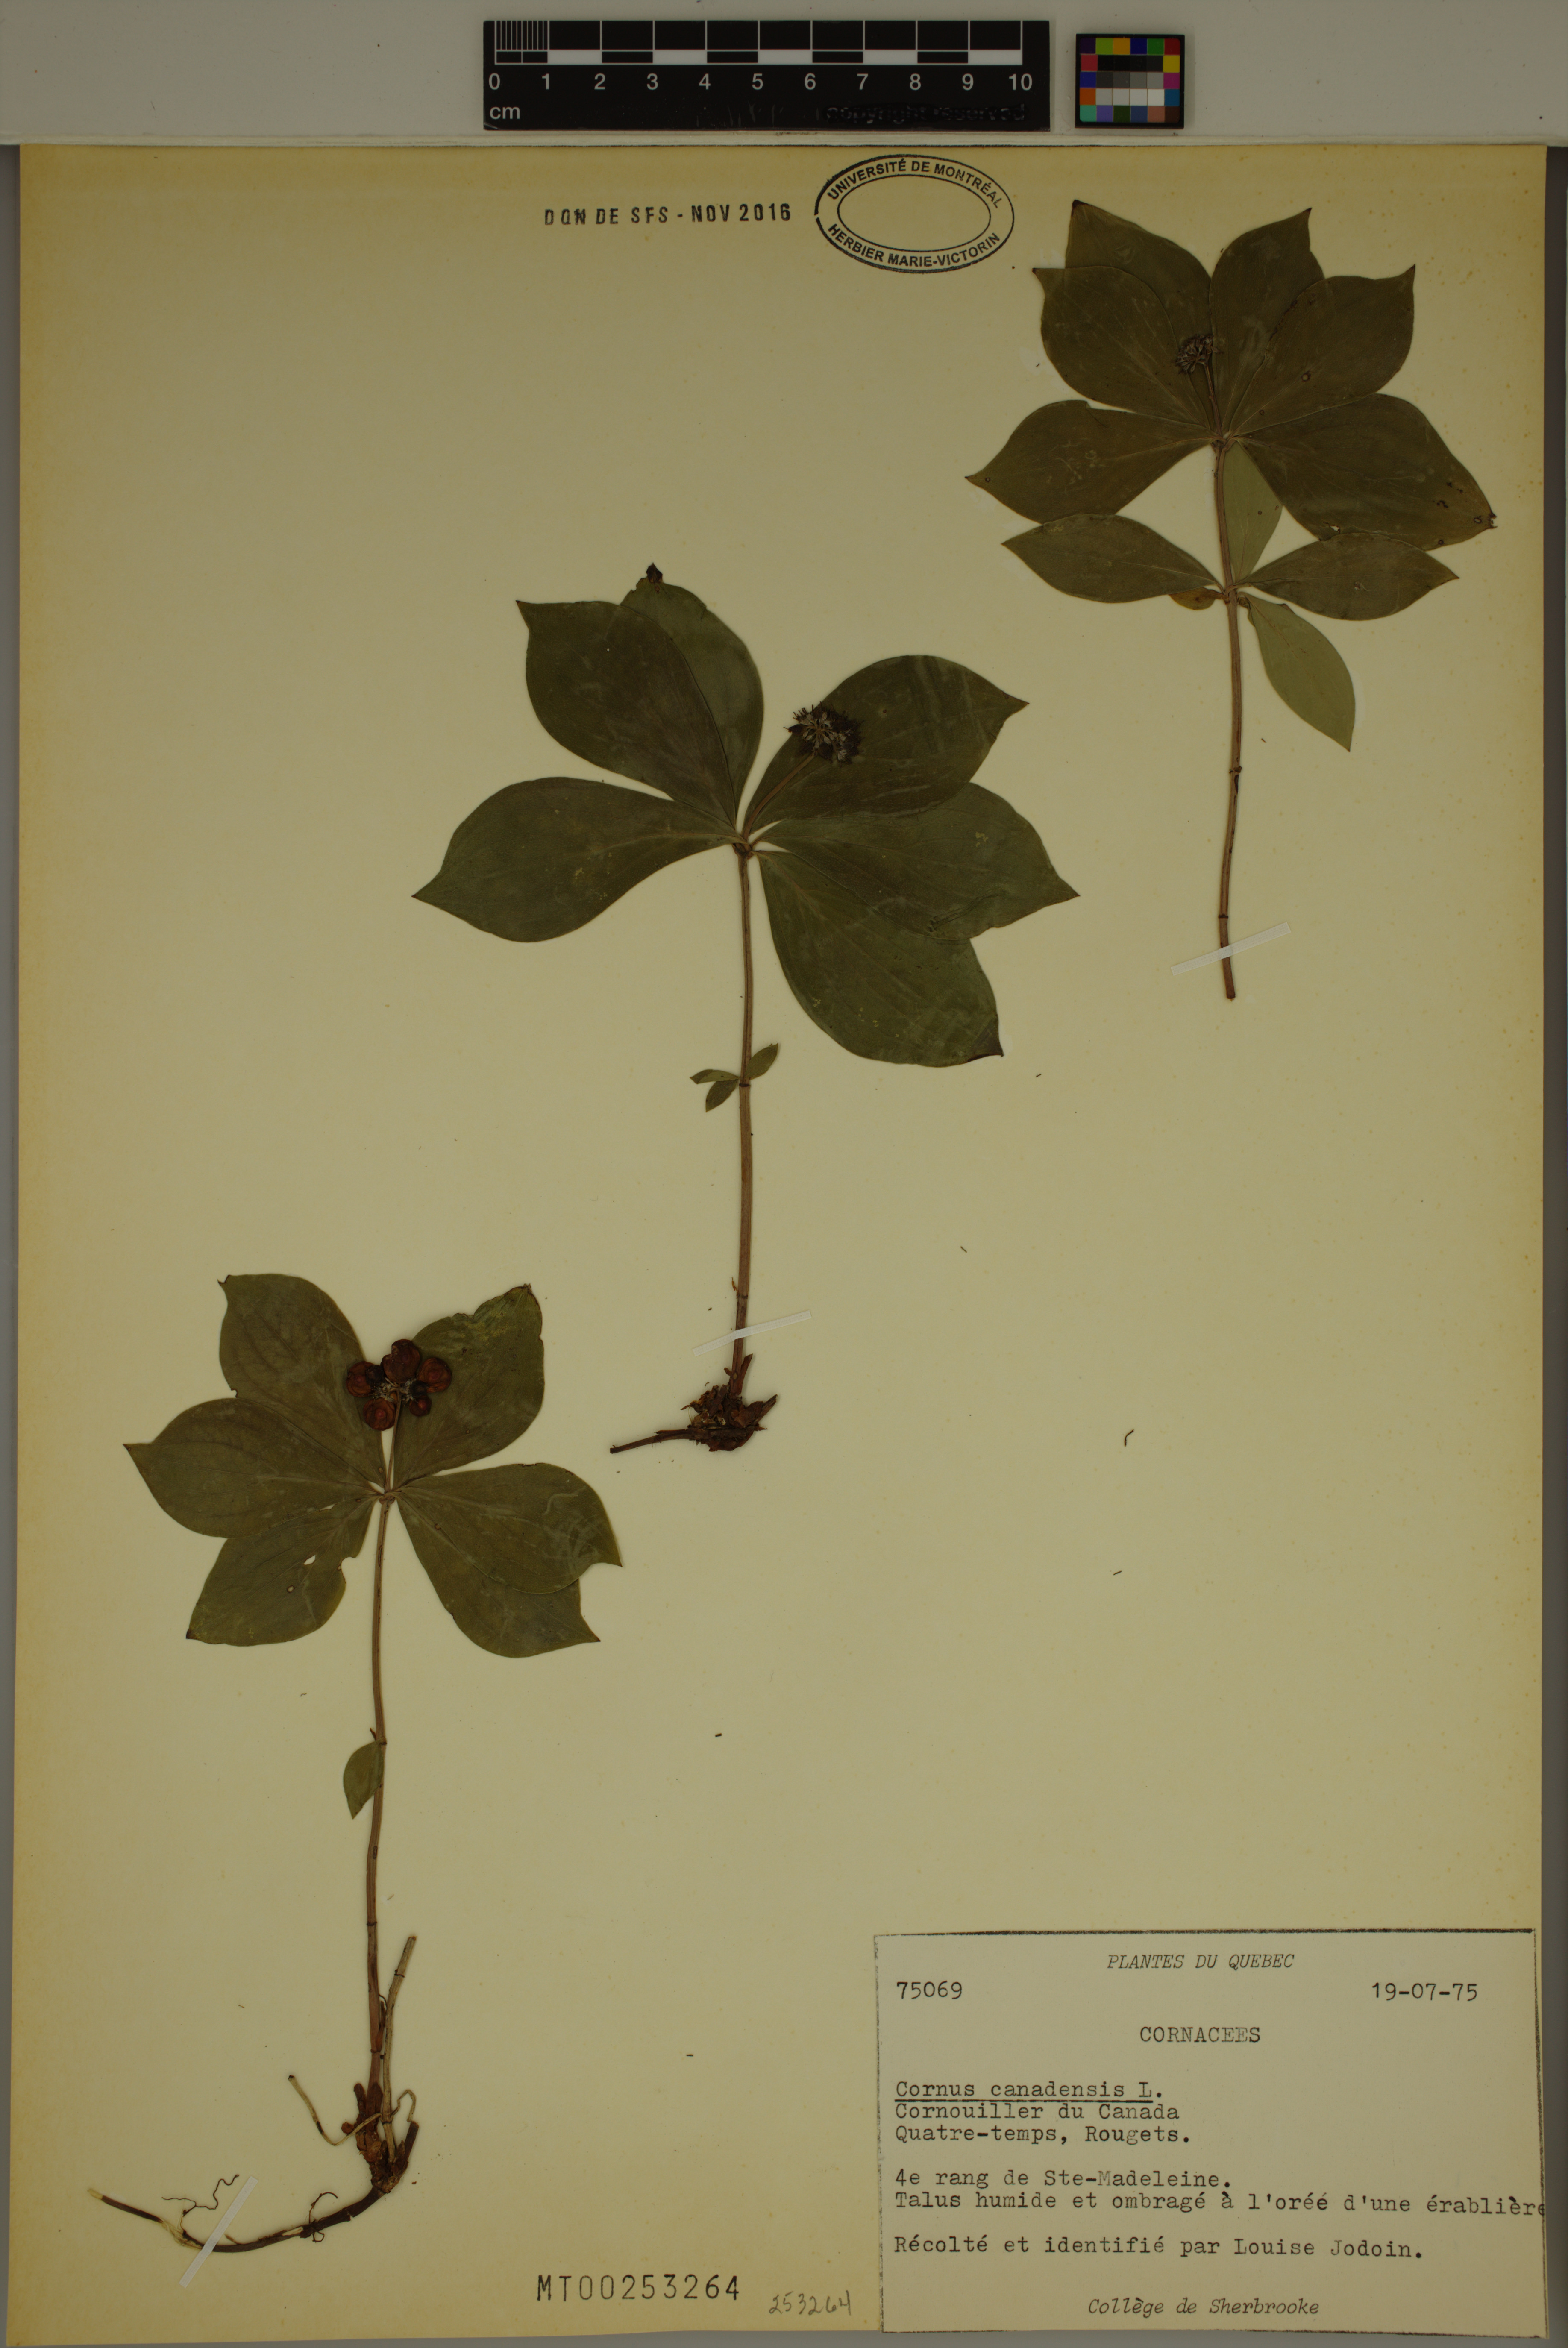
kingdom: Plantae
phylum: Tracheophyta
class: Magnoliopsida
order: Cornales
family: Cornaceae
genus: Cornus
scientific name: Cornus canadensis
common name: Creeping dogwood
